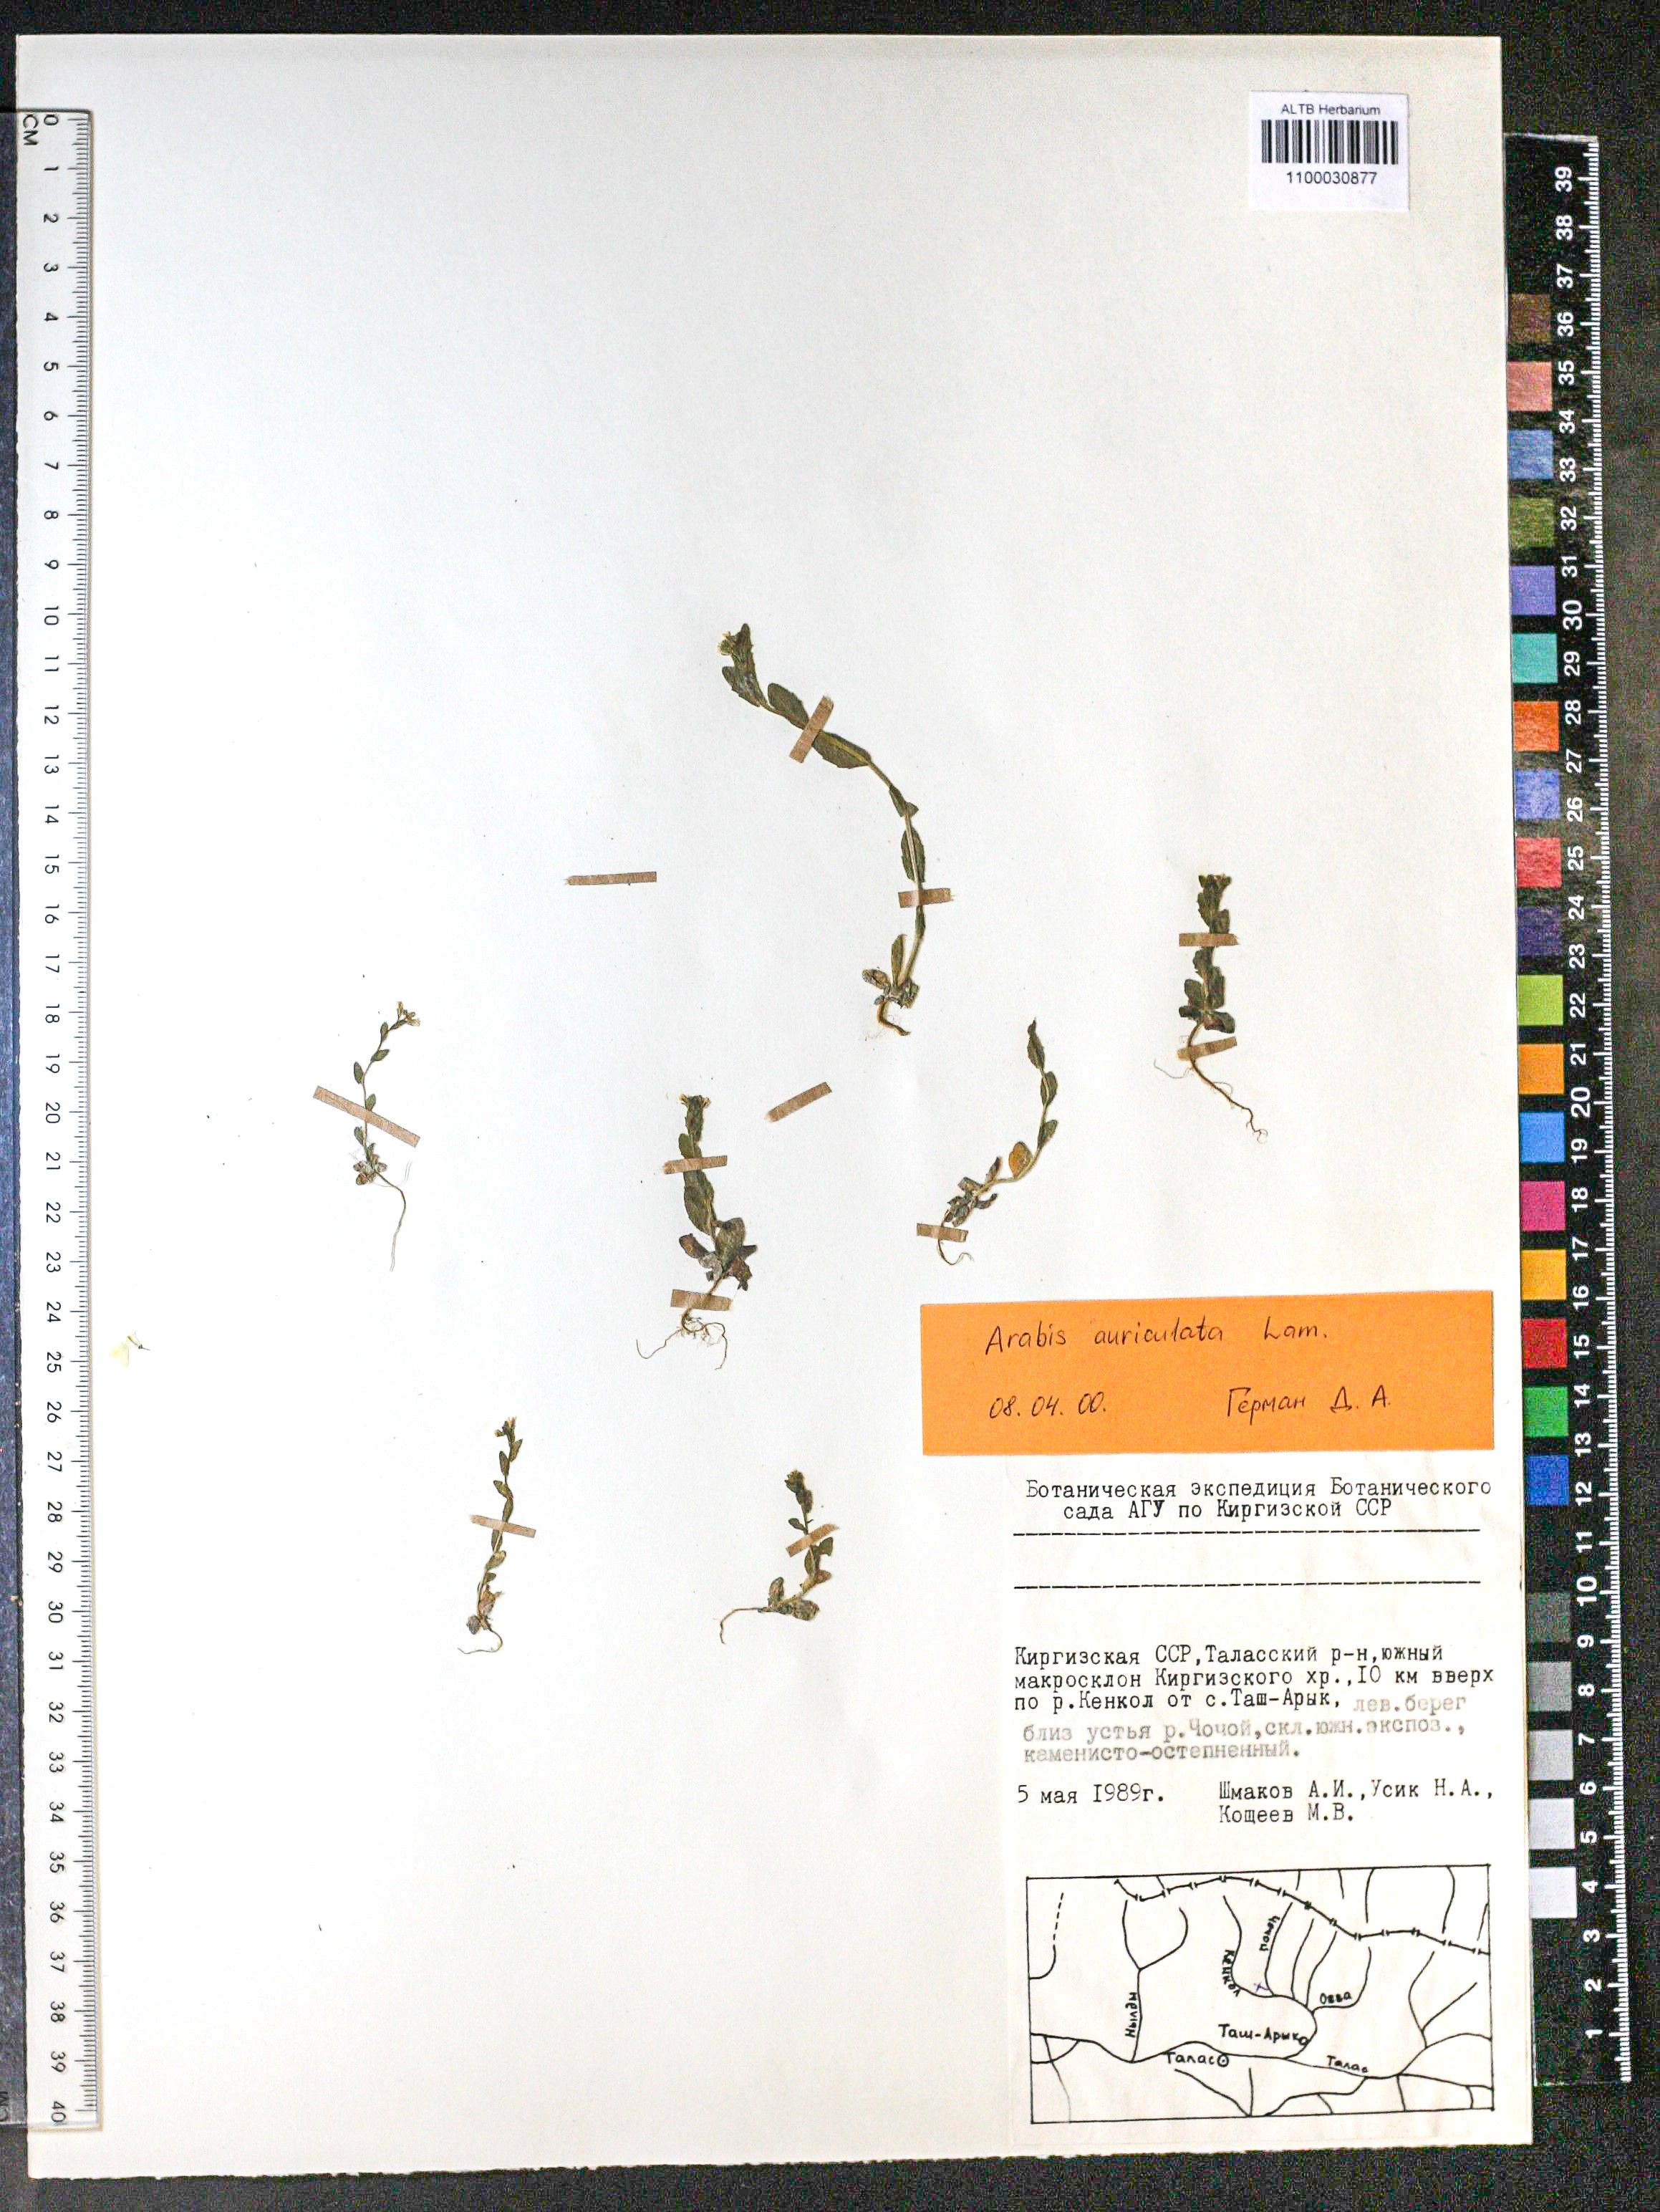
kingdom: Plantae
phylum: Tracheophyta
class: Magnoliopsida
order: Brassicales
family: Brassicaceae
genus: Arabis
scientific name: Arabis auriculata
